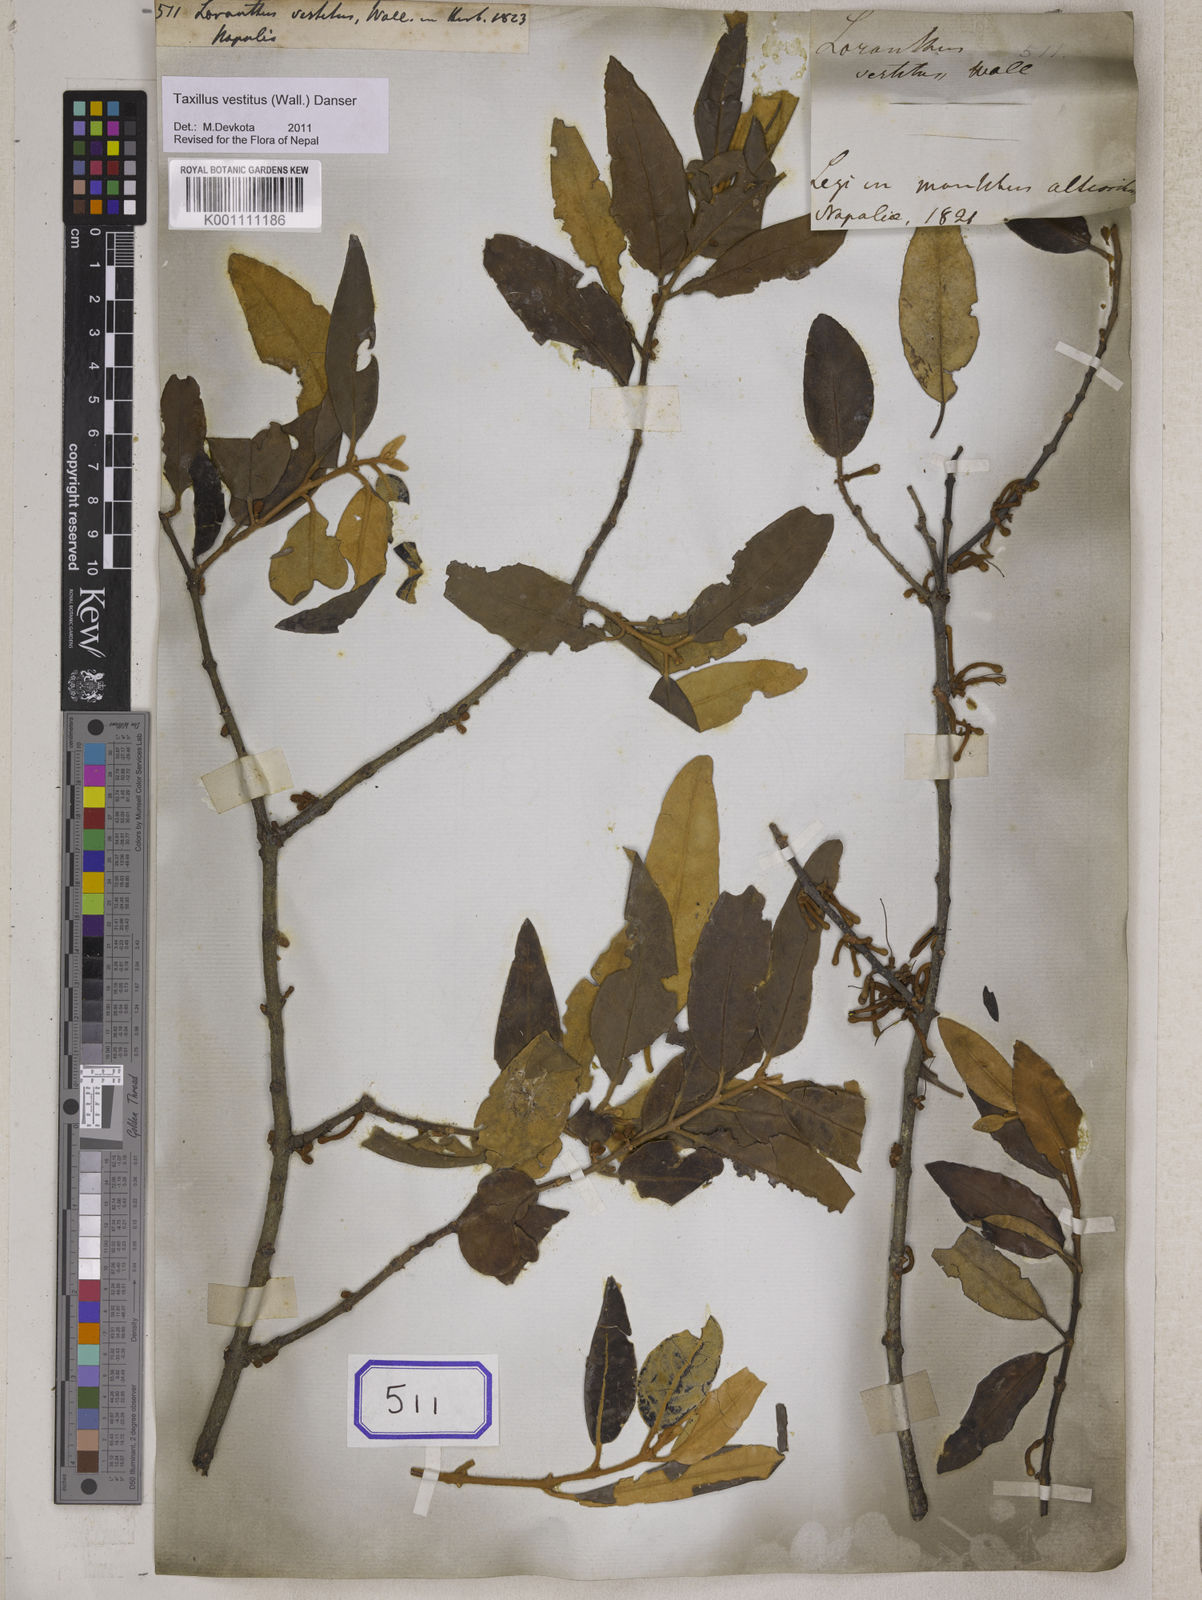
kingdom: Plantae
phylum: Tracheophyta
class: Magnoliopsida
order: Santalales
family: Loranthaceae
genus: Taxillus
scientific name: Taxillus vestitus
